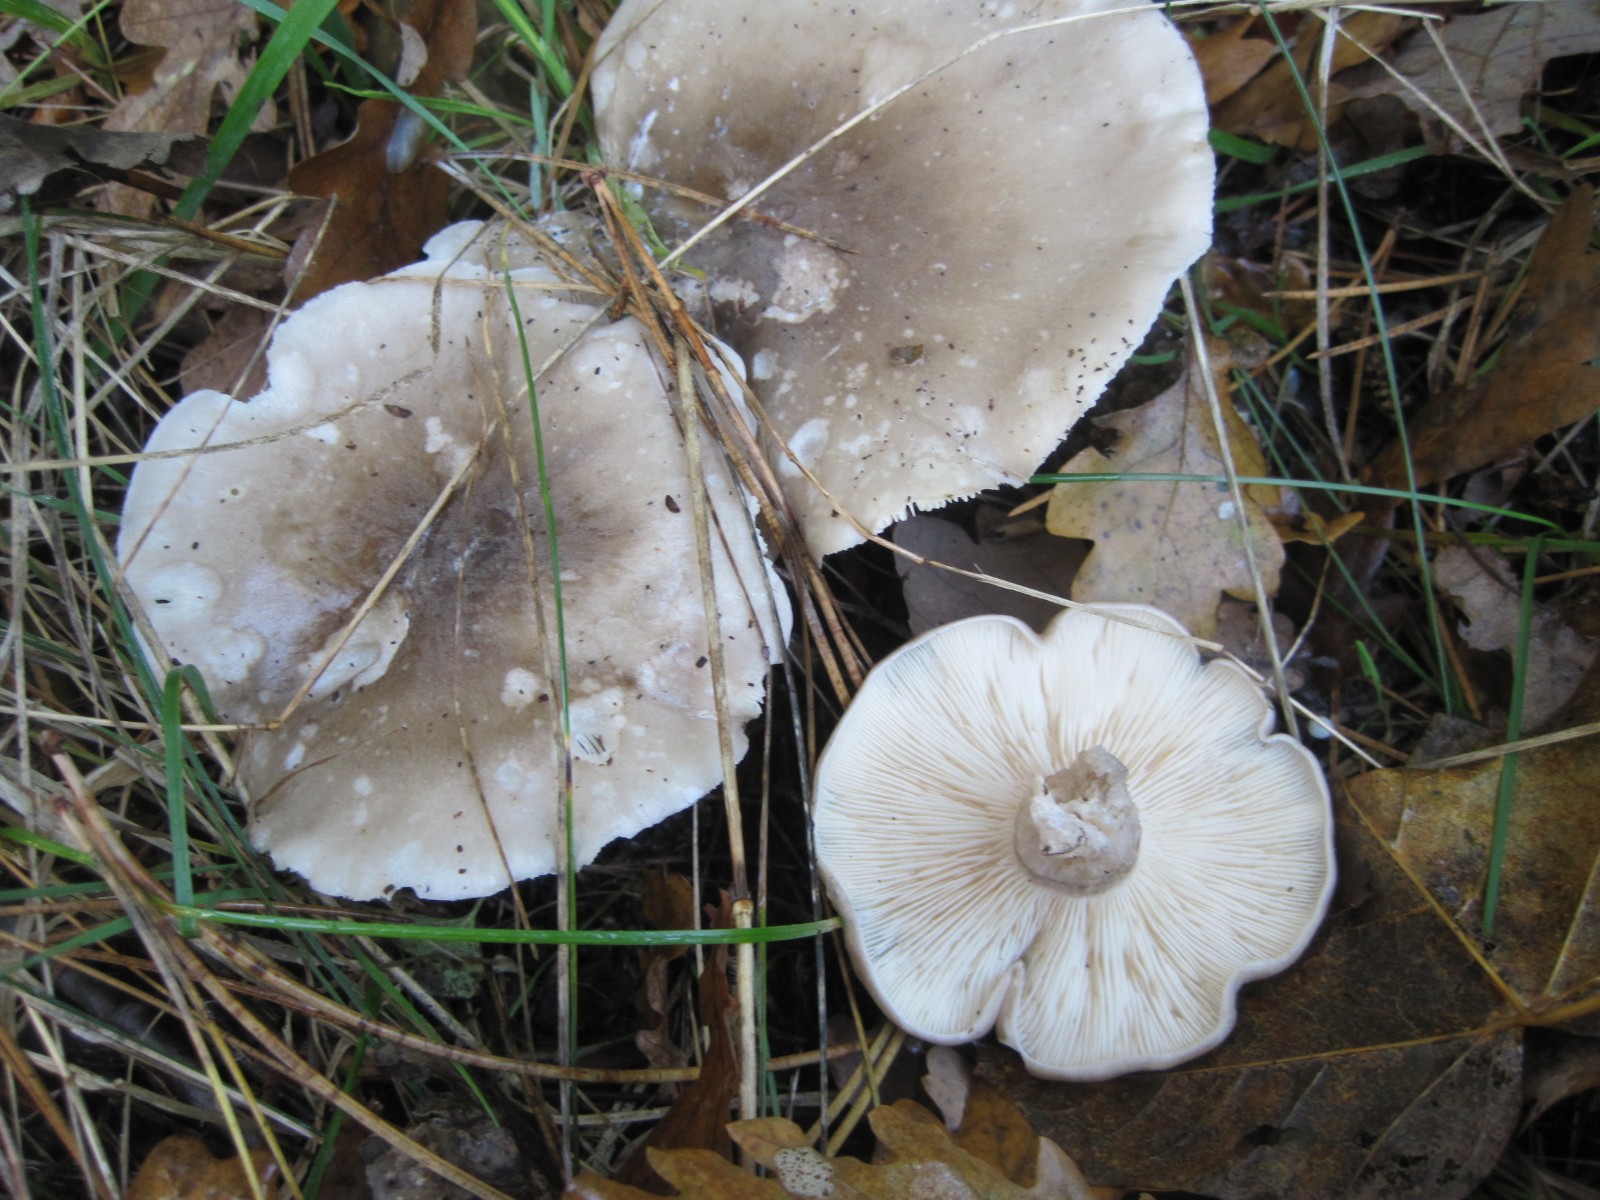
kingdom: Fungi
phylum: Basidiomycota
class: Agaricomycetes
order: Agaricales
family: Tricholomataceae
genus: Clitocybe
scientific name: Clitocybe nebularis
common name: tåge-tragthat
